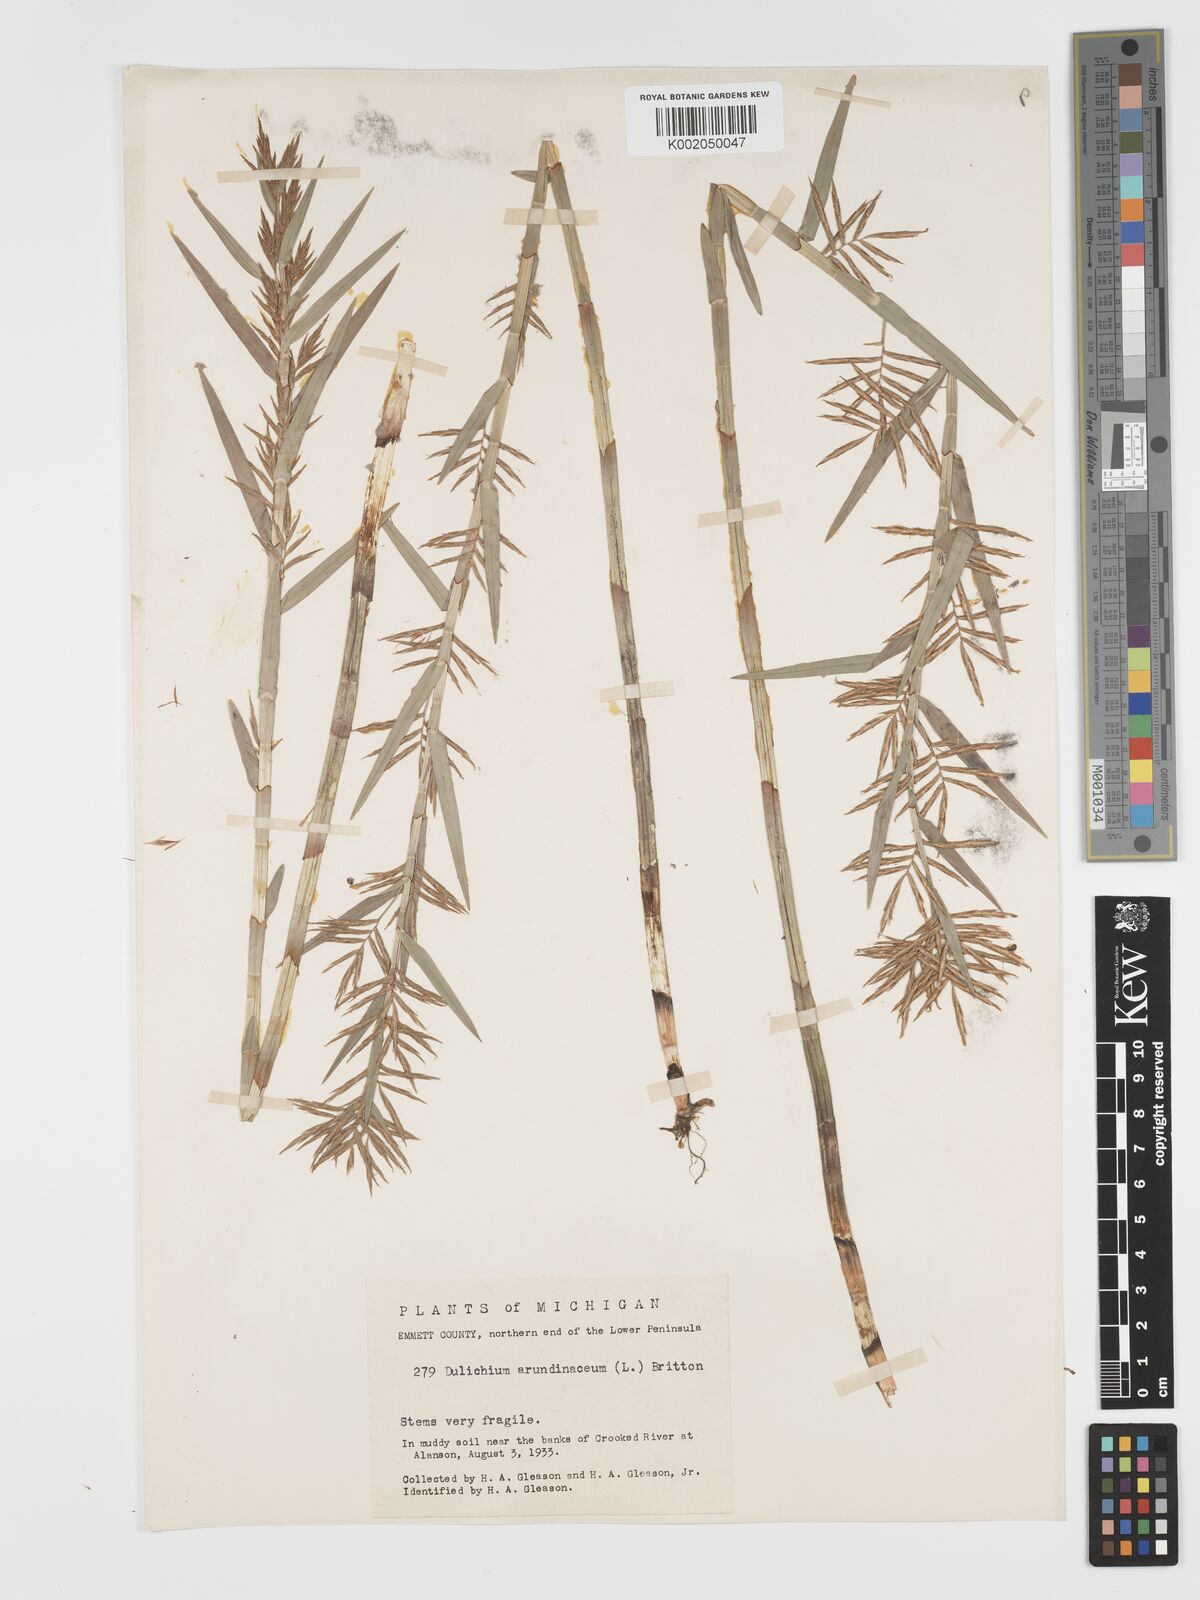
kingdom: Plantae
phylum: Tracheophyta
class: Liliopsida
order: Poales
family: Cyperaceae
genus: Dulichium
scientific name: Dulichium arundinaceum
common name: Three-way sedge
